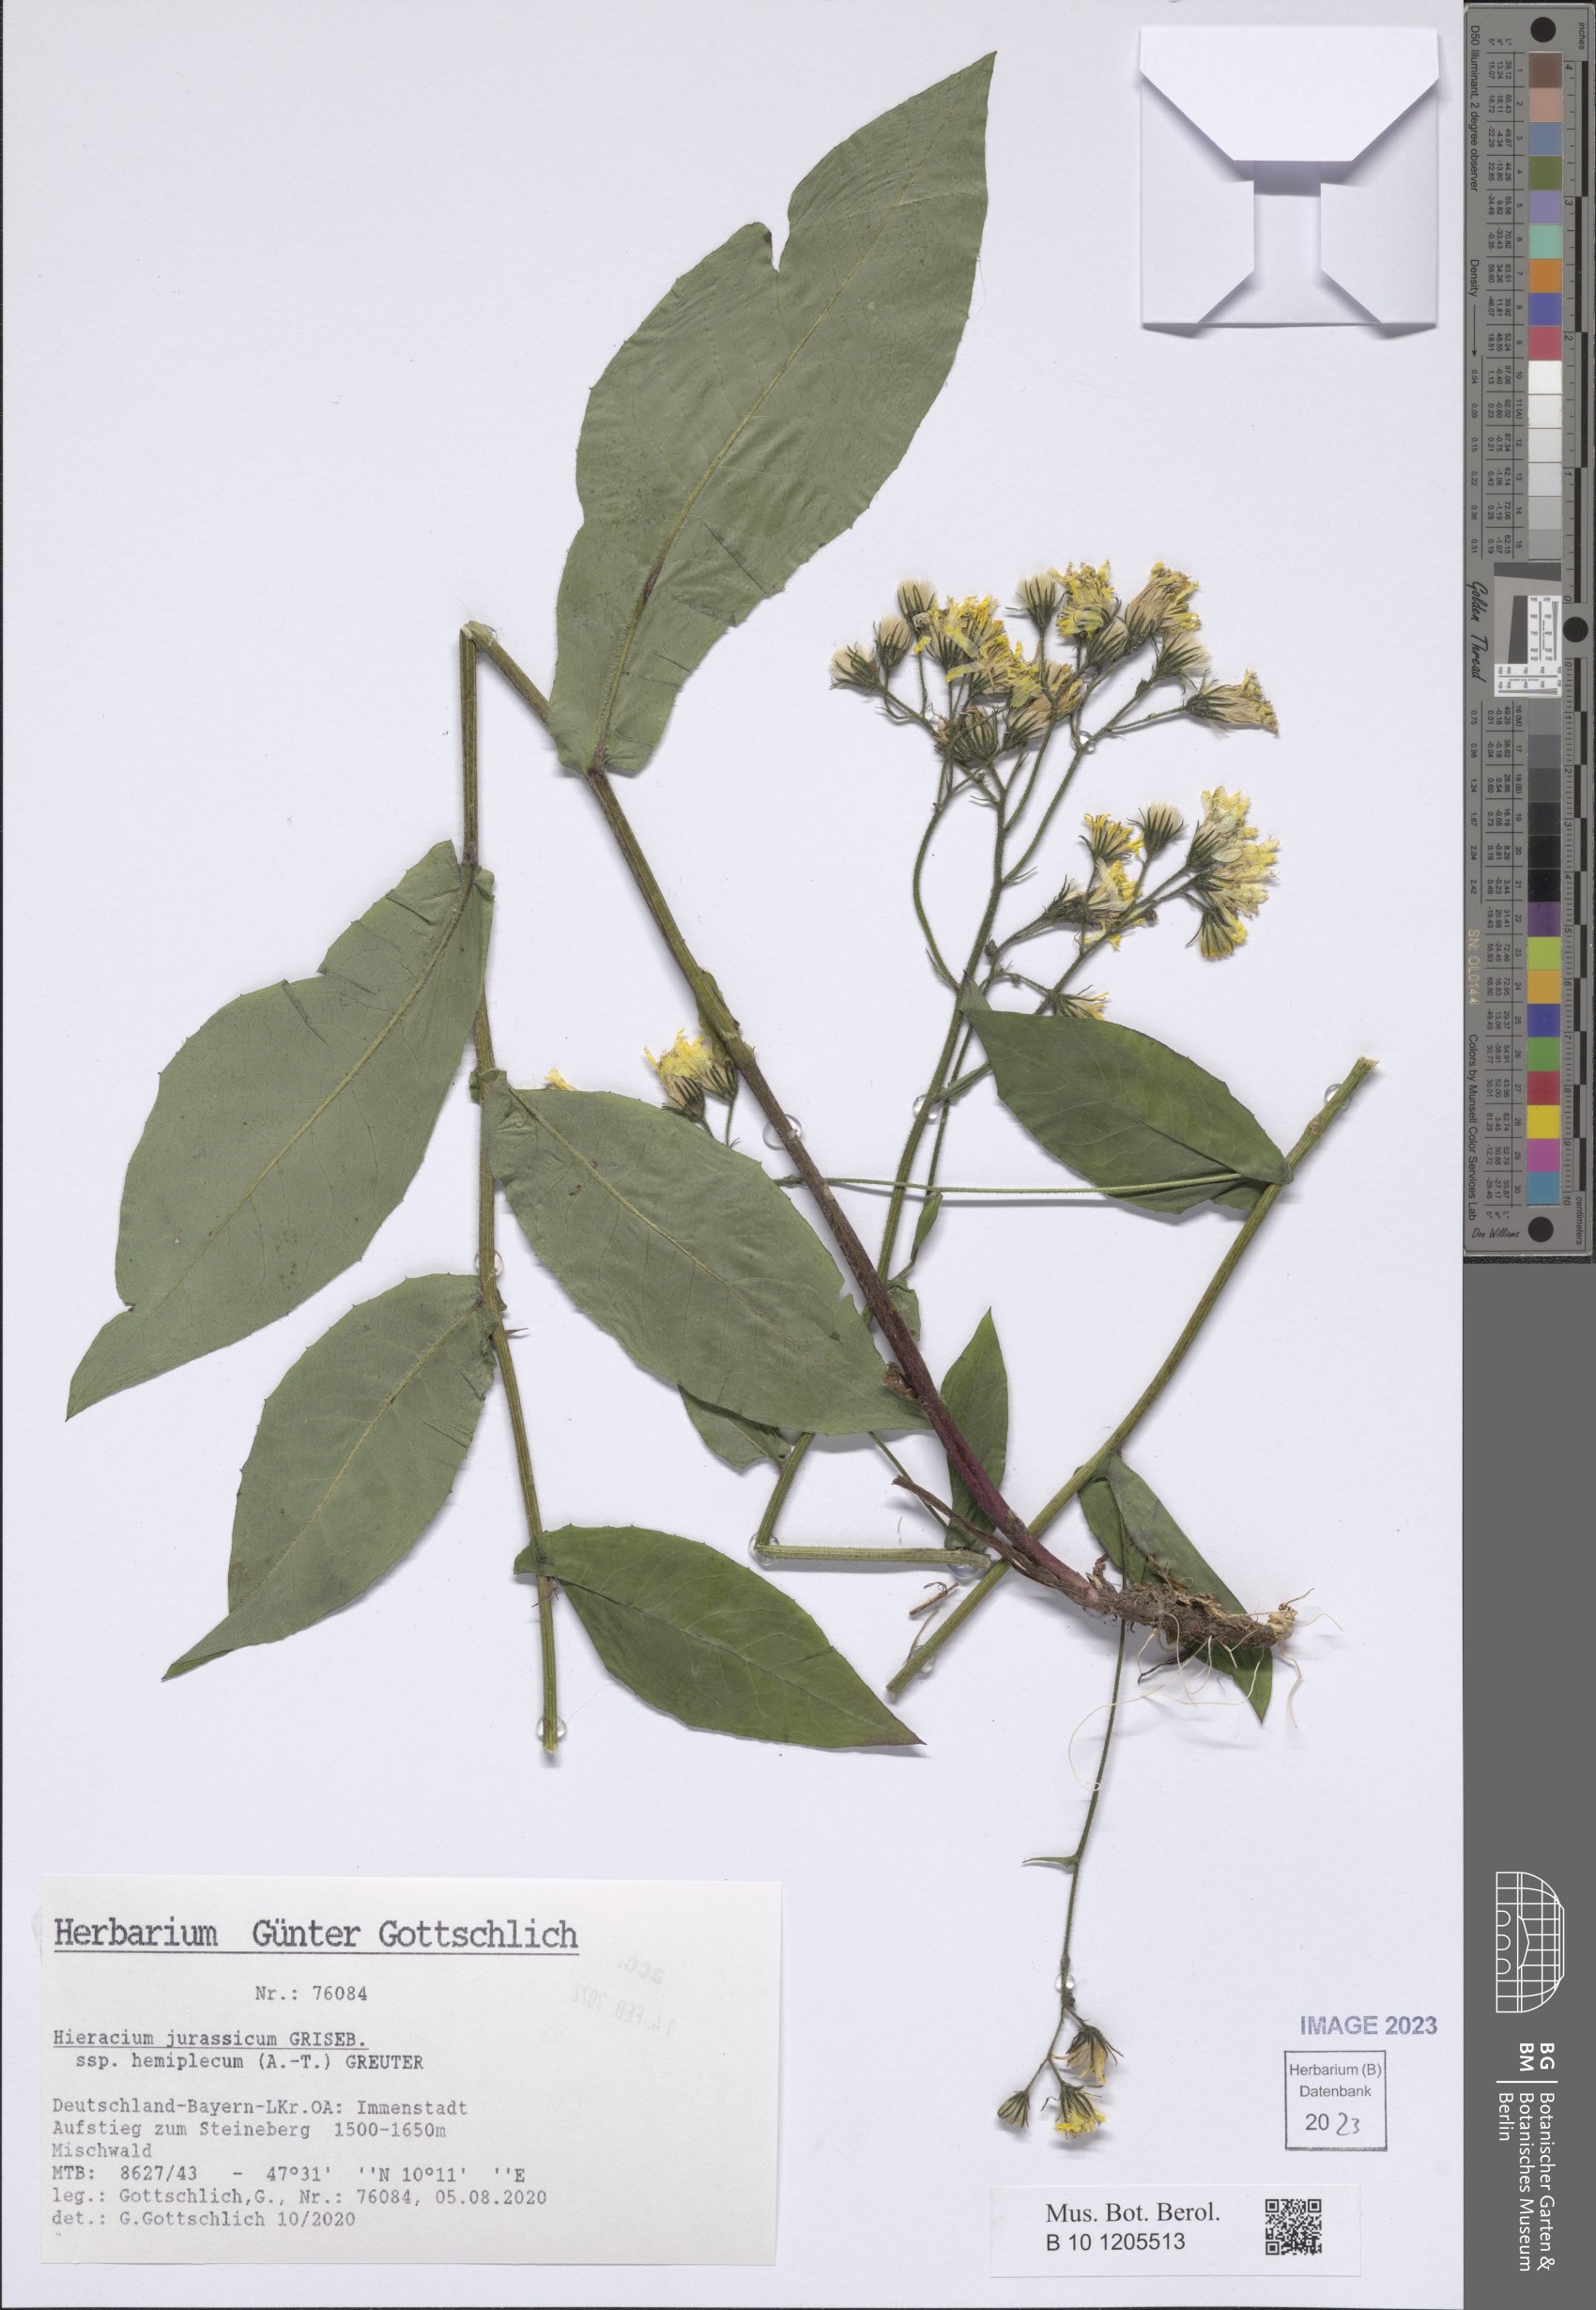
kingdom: Plantae
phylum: Tracheophyta
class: Magnoliopsida
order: Asterales
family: Asteraceae
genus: Hieracium
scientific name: Hieracium jurassicum
